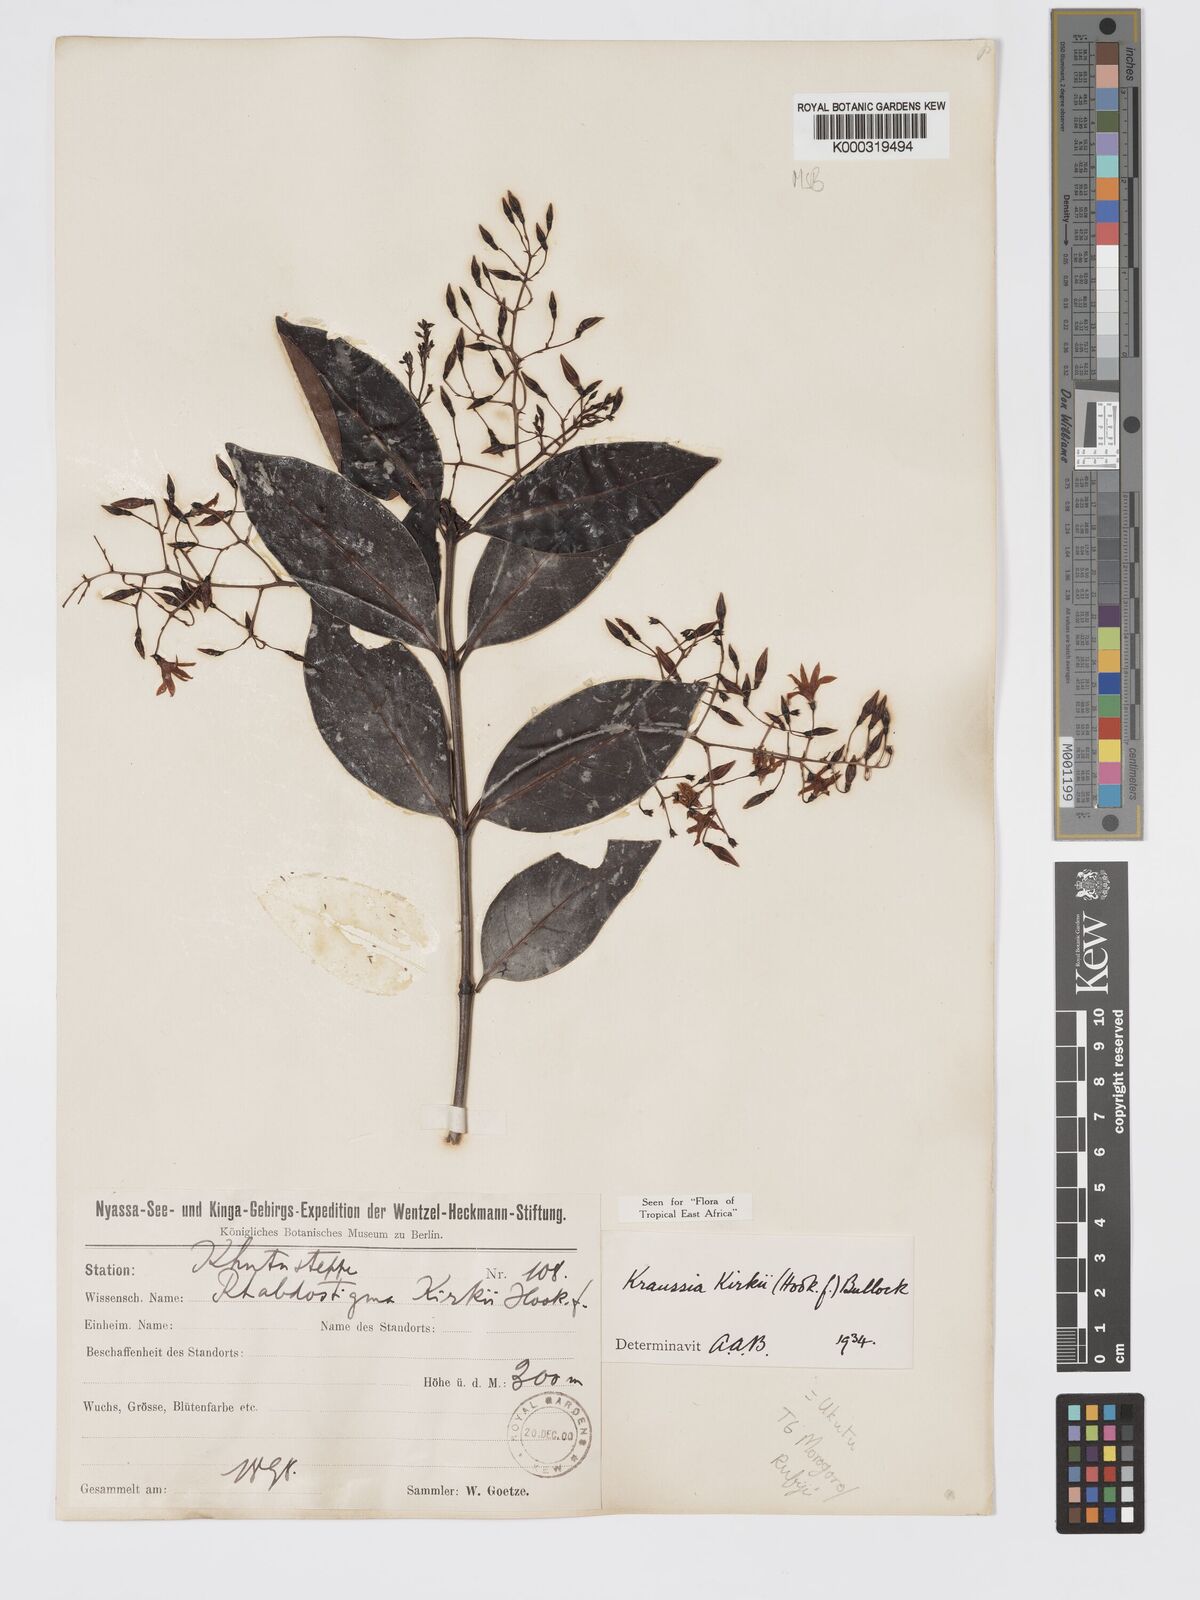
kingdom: Plantae
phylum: Tracheophyta
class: Magnoliopsida
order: Gentianales
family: Rubiaceae
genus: Kraussia
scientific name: Kraussia kirkii
